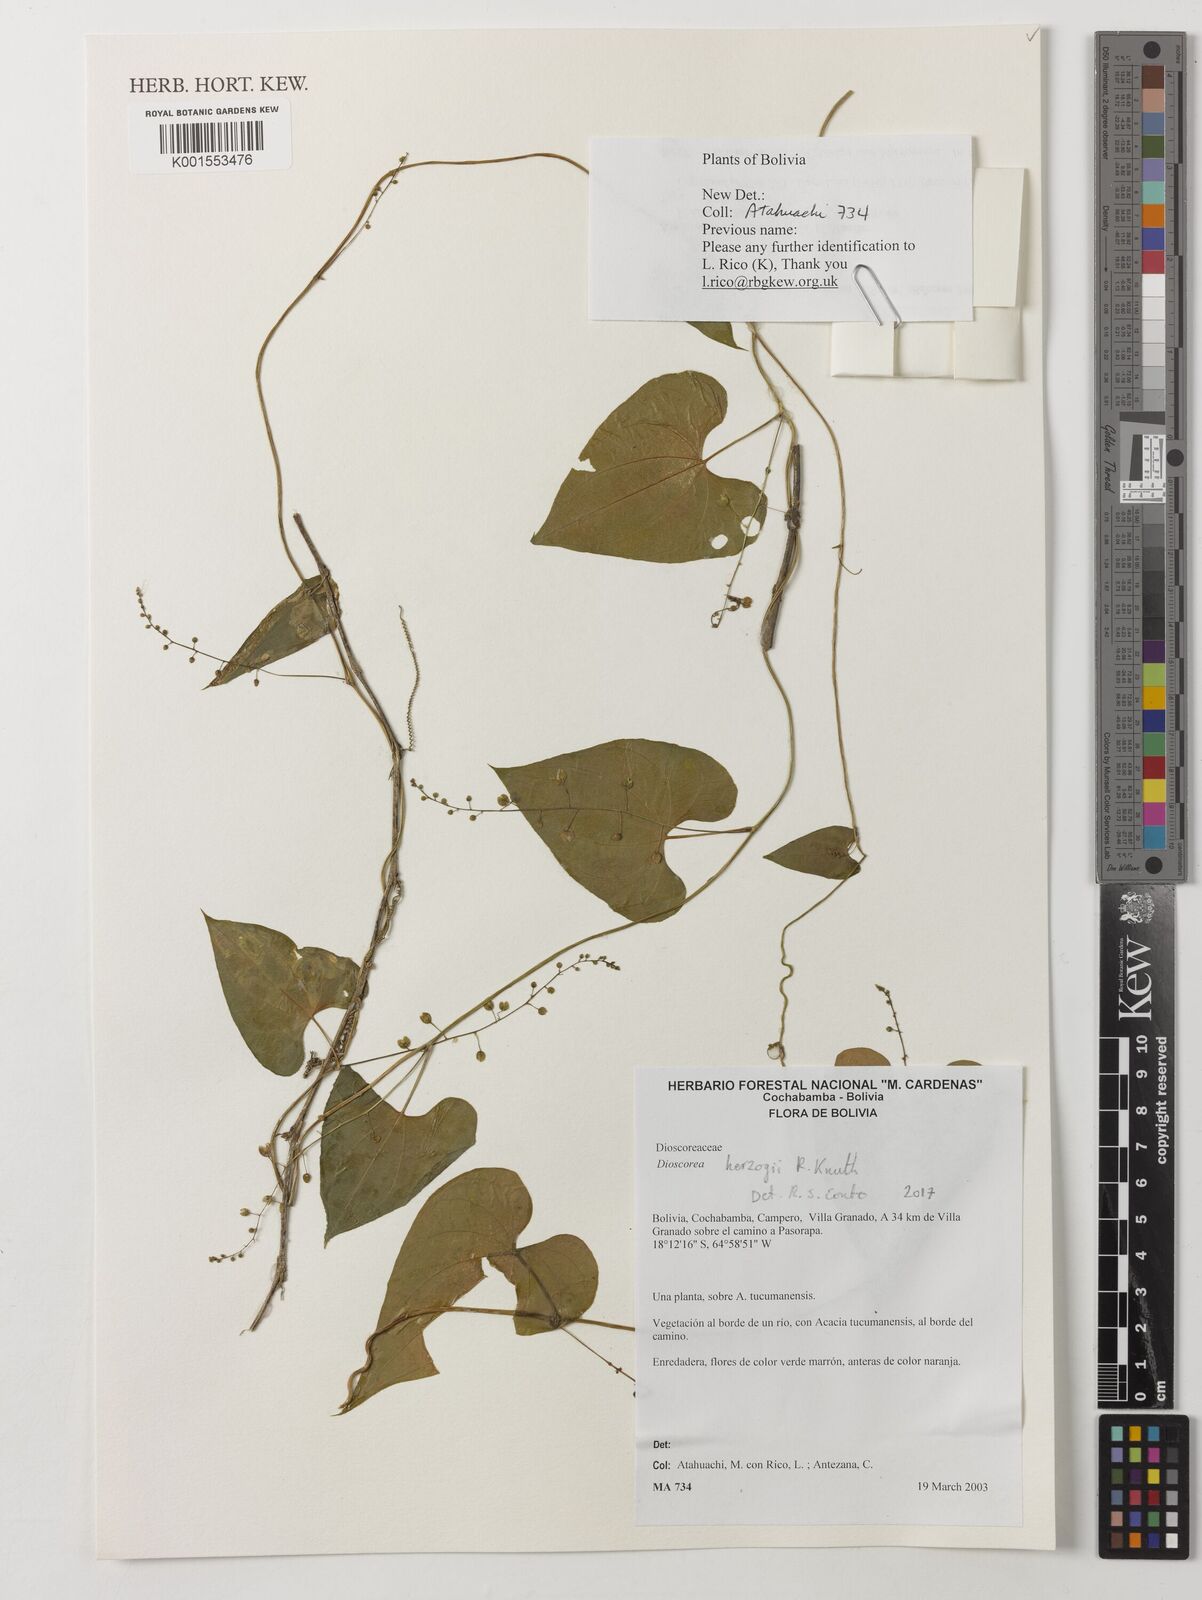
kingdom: Plantae
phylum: Tracheophyta
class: Liliopsida
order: Dioscoreales
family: Dioscoreaceae
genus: Dioscorea
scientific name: Dioscorea monadelpha
